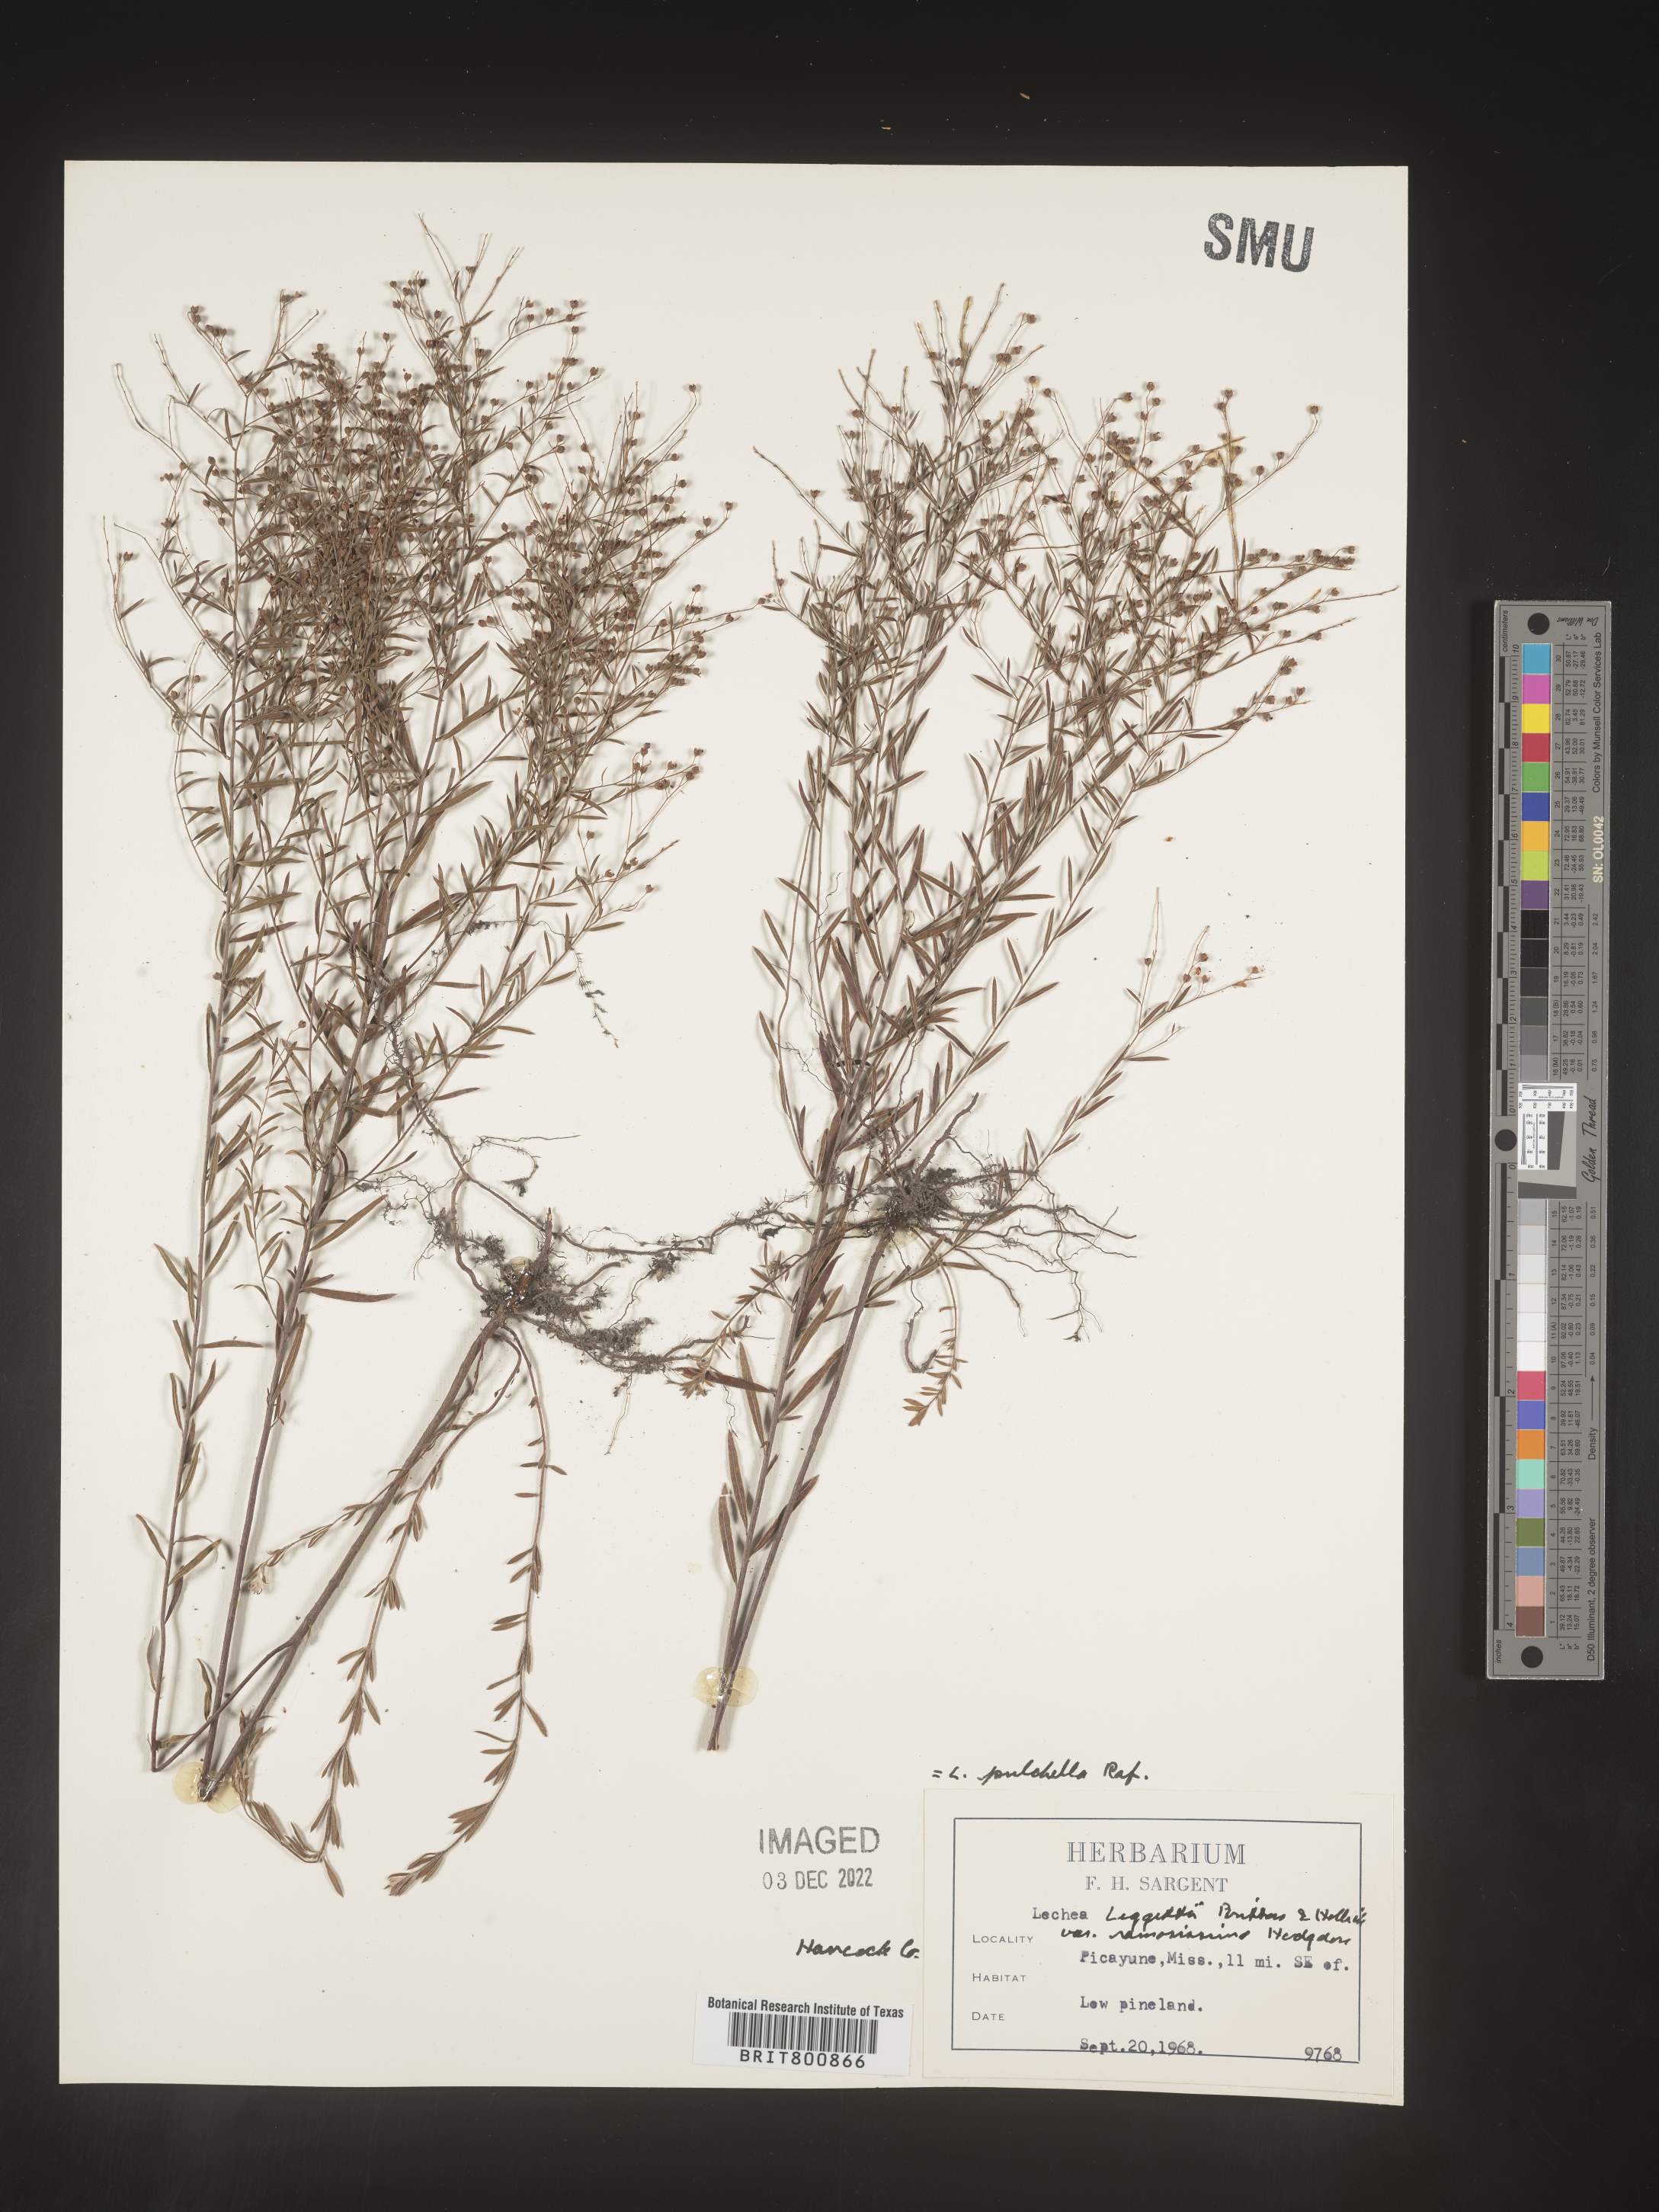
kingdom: Plantae
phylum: Tracheophyta
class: Magnoliopsida
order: Malvales
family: Cistaceae
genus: Lechea
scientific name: Lechea pulchella
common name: Leggett's pinweed
